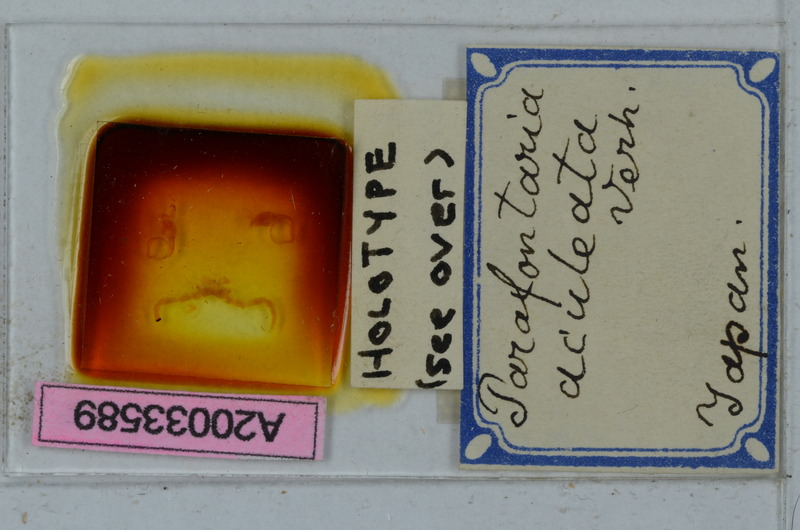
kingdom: Animalia
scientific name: Animalia
